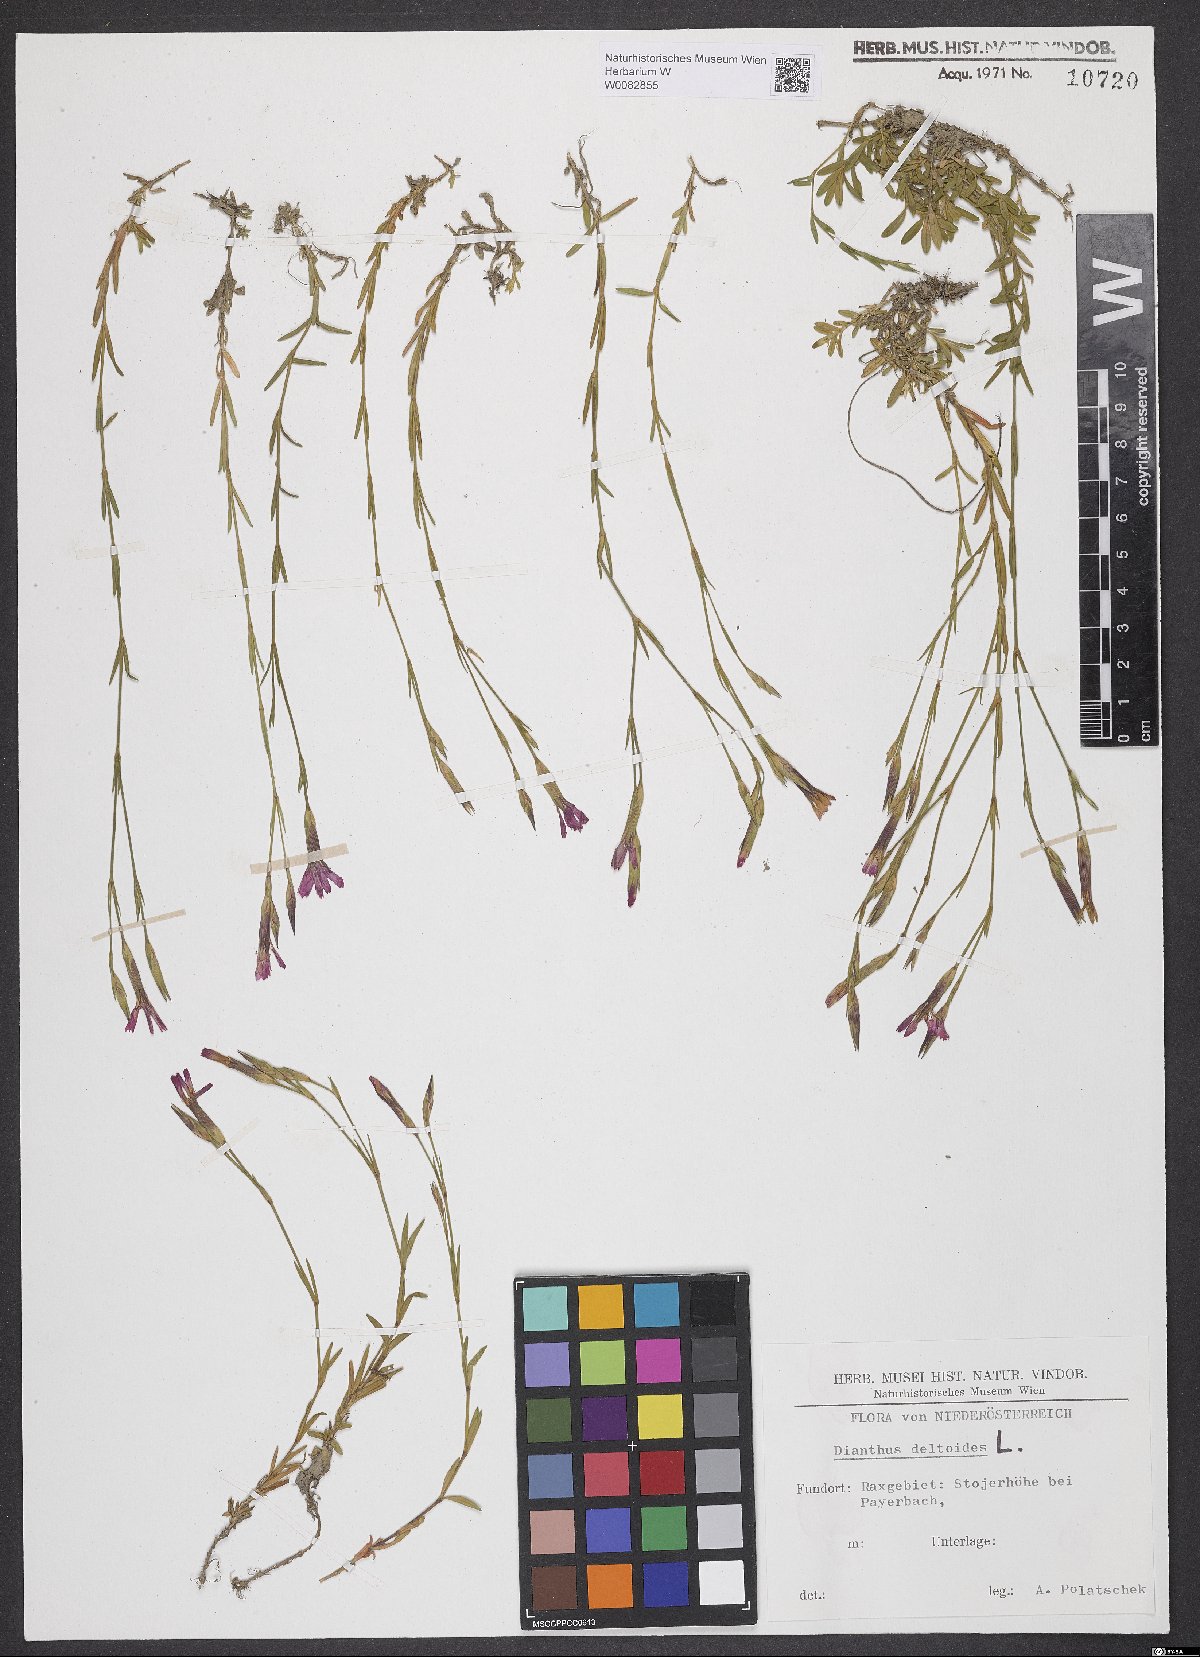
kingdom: Plantae
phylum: Tracheophyta
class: Magnoliopsida
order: Caryophyllales
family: Caryophyllaceae
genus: Dianthus
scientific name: Dianthus deltoides
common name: Maiden pink
